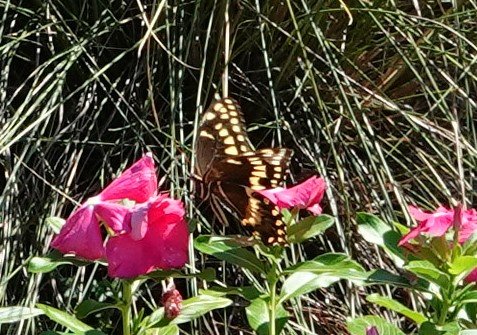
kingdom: Animalia
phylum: Arthropoda
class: Insecta
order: Lepidoptera
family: Papilionidae
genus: Pterourus
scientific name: Pterourus palamedes
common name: Palamedes Swallowtail
